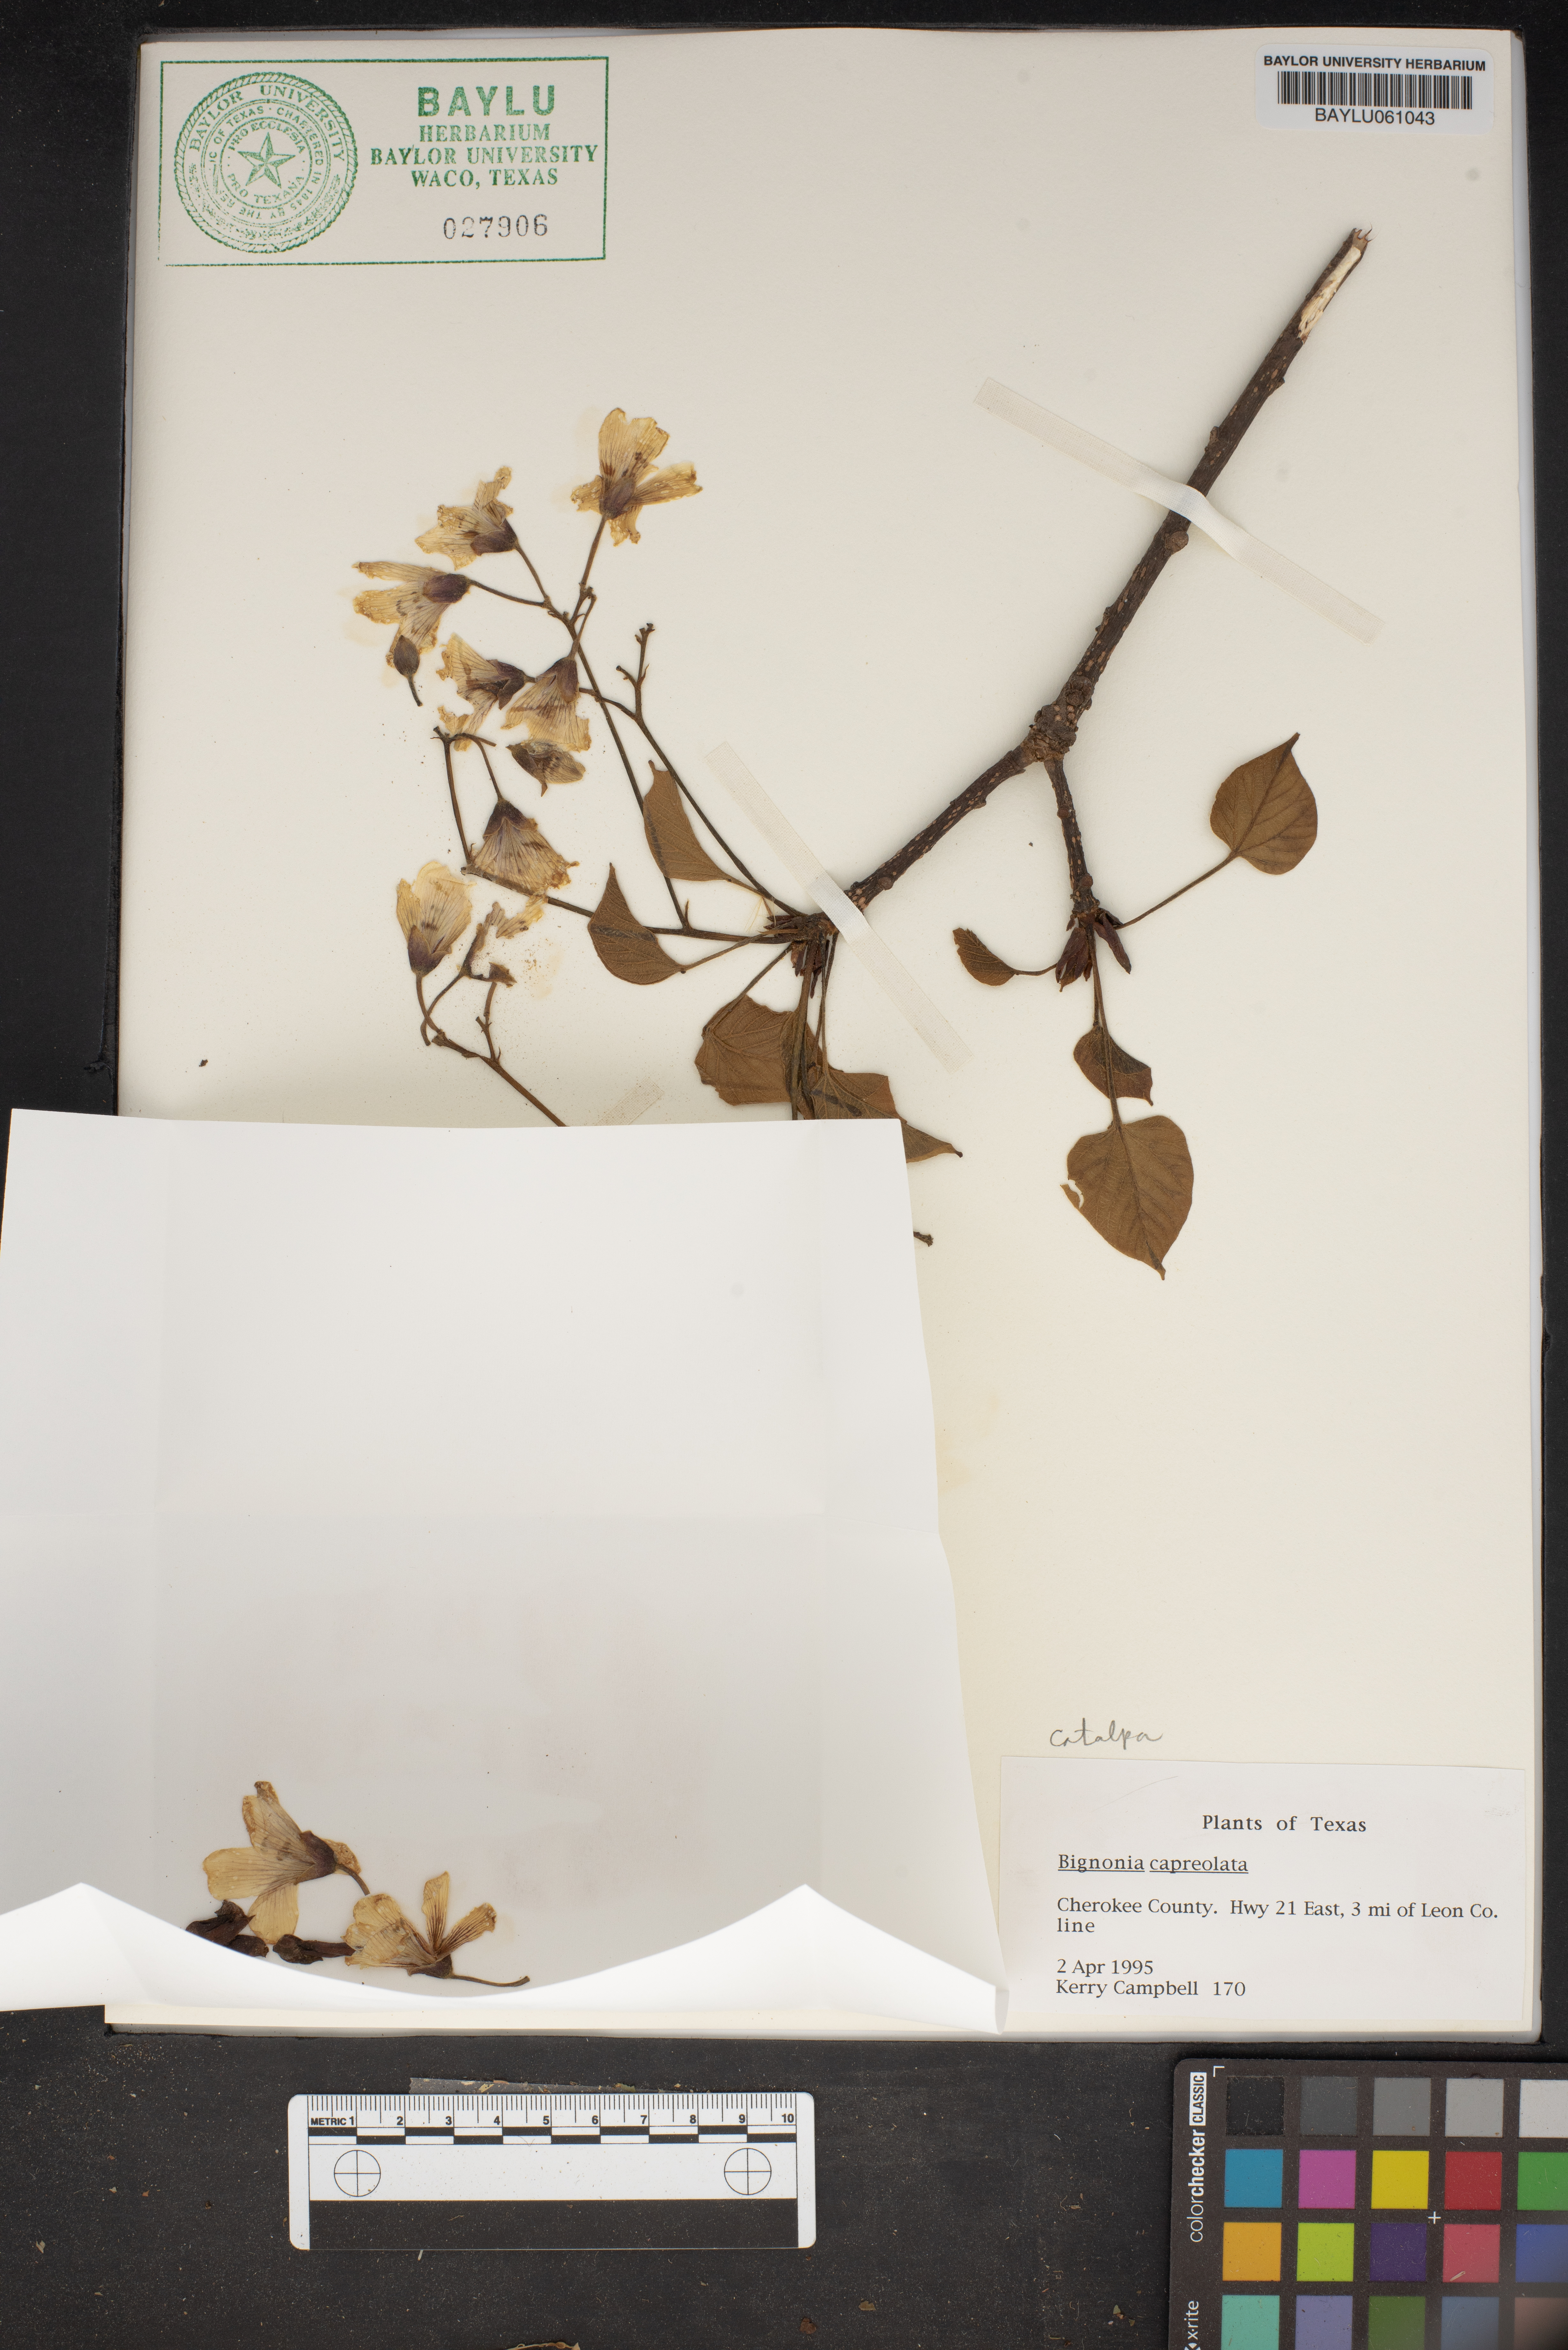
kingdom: Plantae
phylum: Tracheophyta
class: Magnoliopsida
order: Lamiales
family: Bignoniaceae
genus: Bignonia
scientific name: Bignonia capreolata
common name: Crossvine
